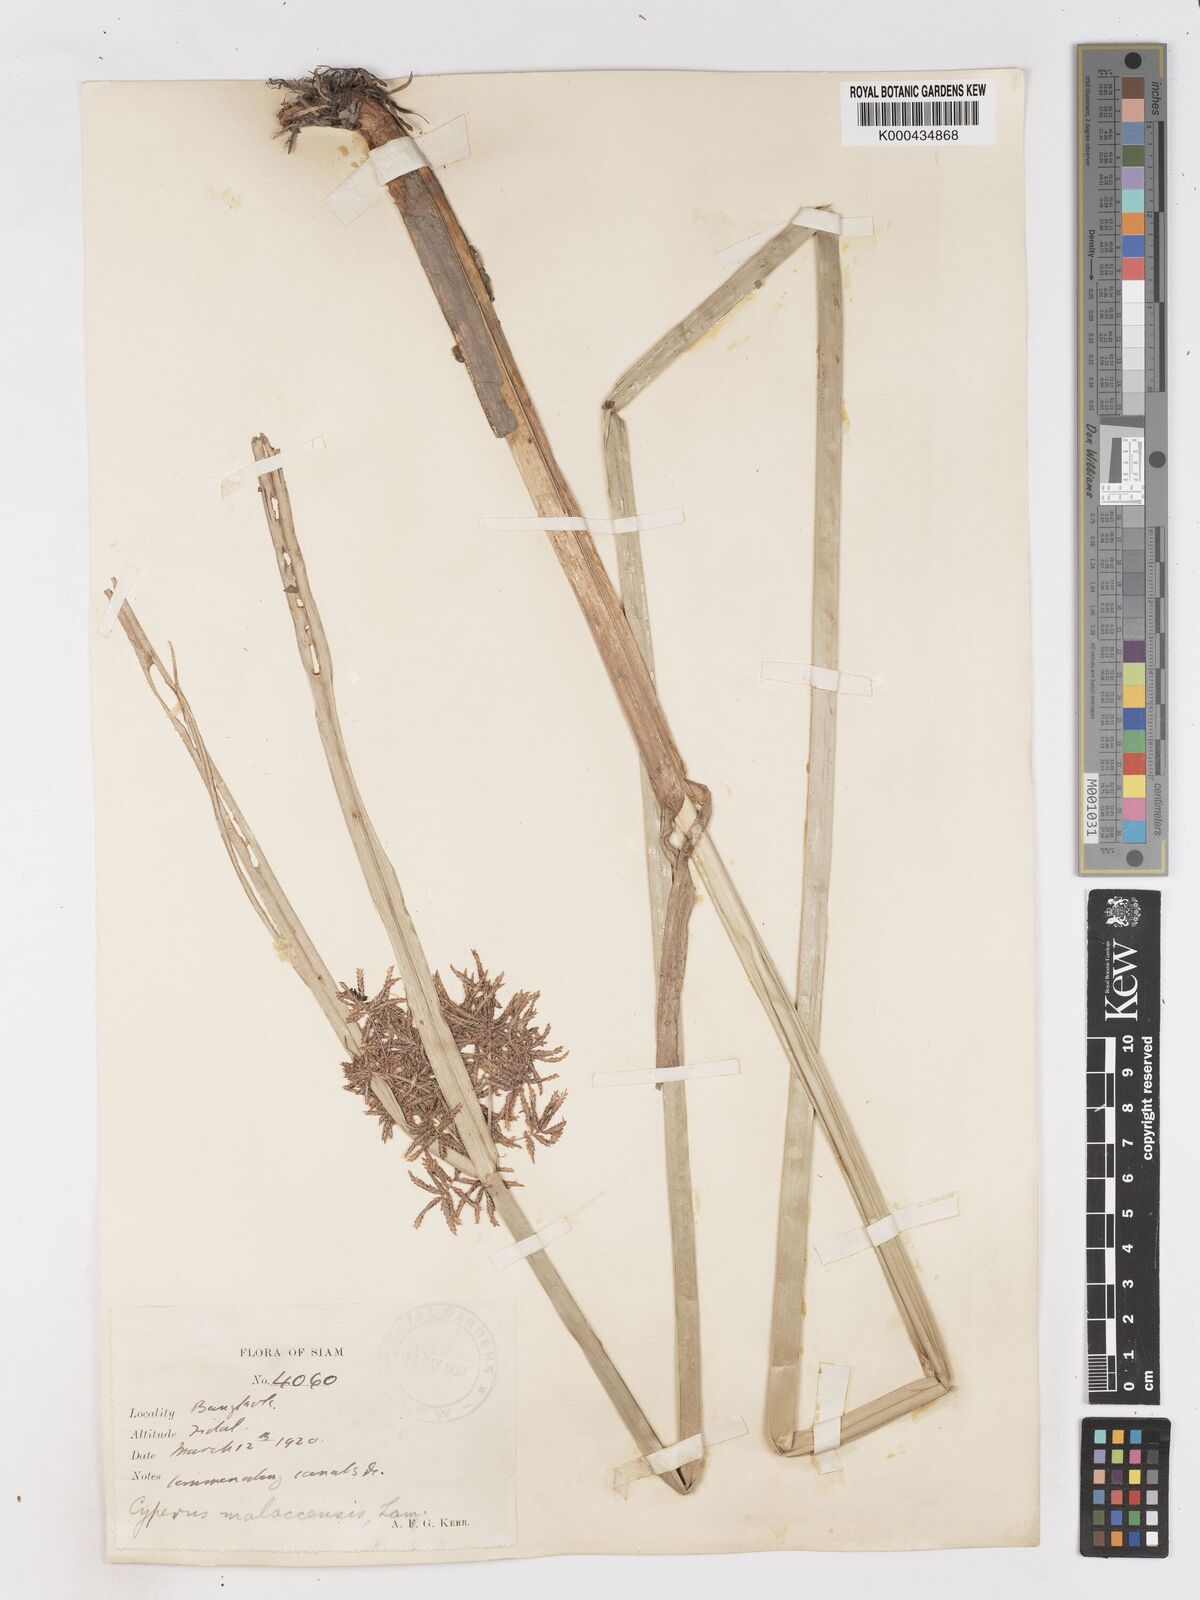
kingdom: Plantae
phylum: Tracheophyta
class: Liliopsida
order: Poales
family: Cyperaceae
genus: Cyperus
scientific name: Cyperus malaccensis
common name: Shichito matgrass
